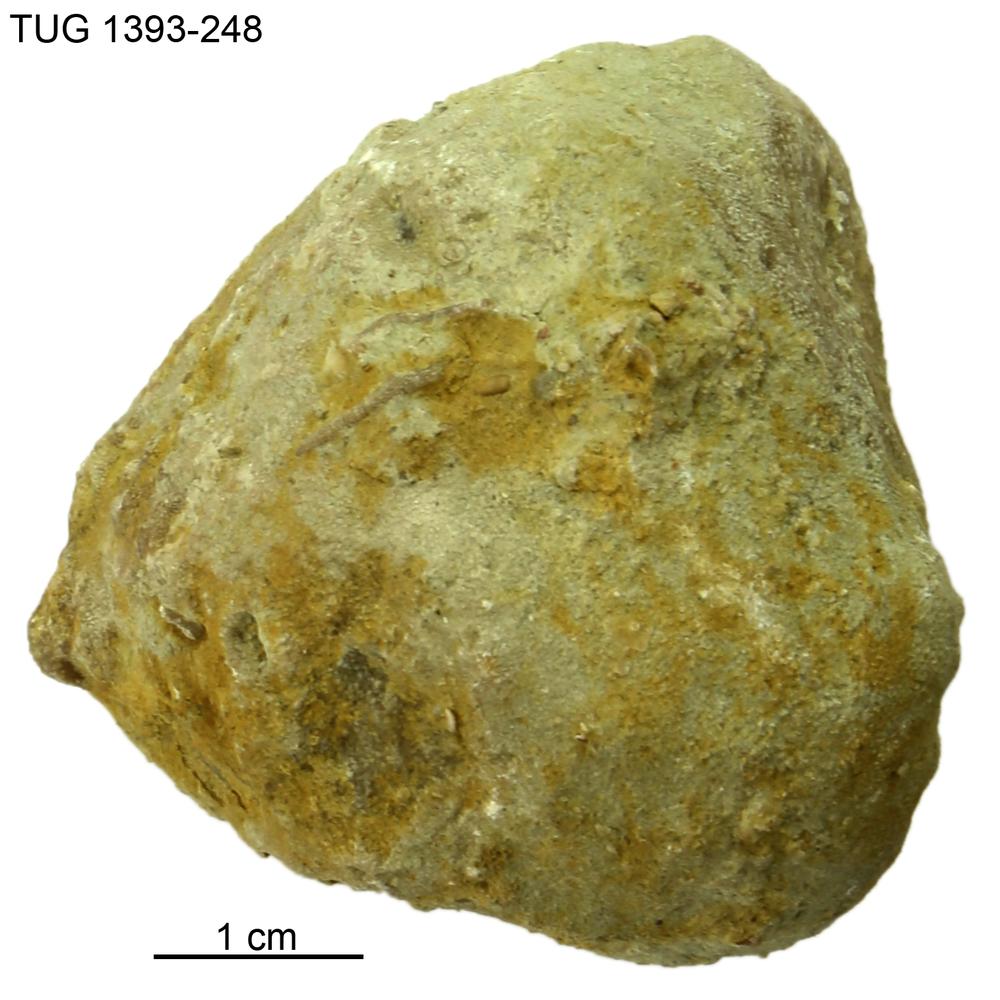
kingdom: Animalia
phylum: Bryozoa
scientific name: Bryozoa
